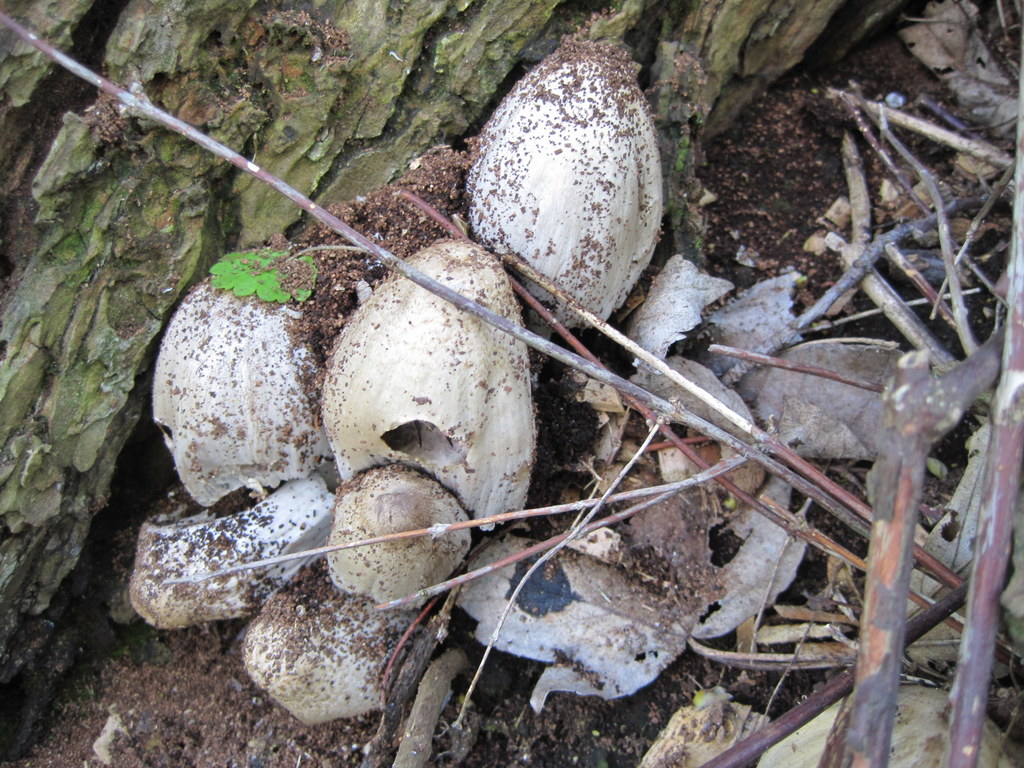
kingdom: Fungi
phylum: Basidiomycota
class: Agaricomycetes
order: Agaricales
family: Psathyrellaceae
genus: Coprinopsis
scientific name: Coprinopsis atramentaria
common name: almindelig blækhat
